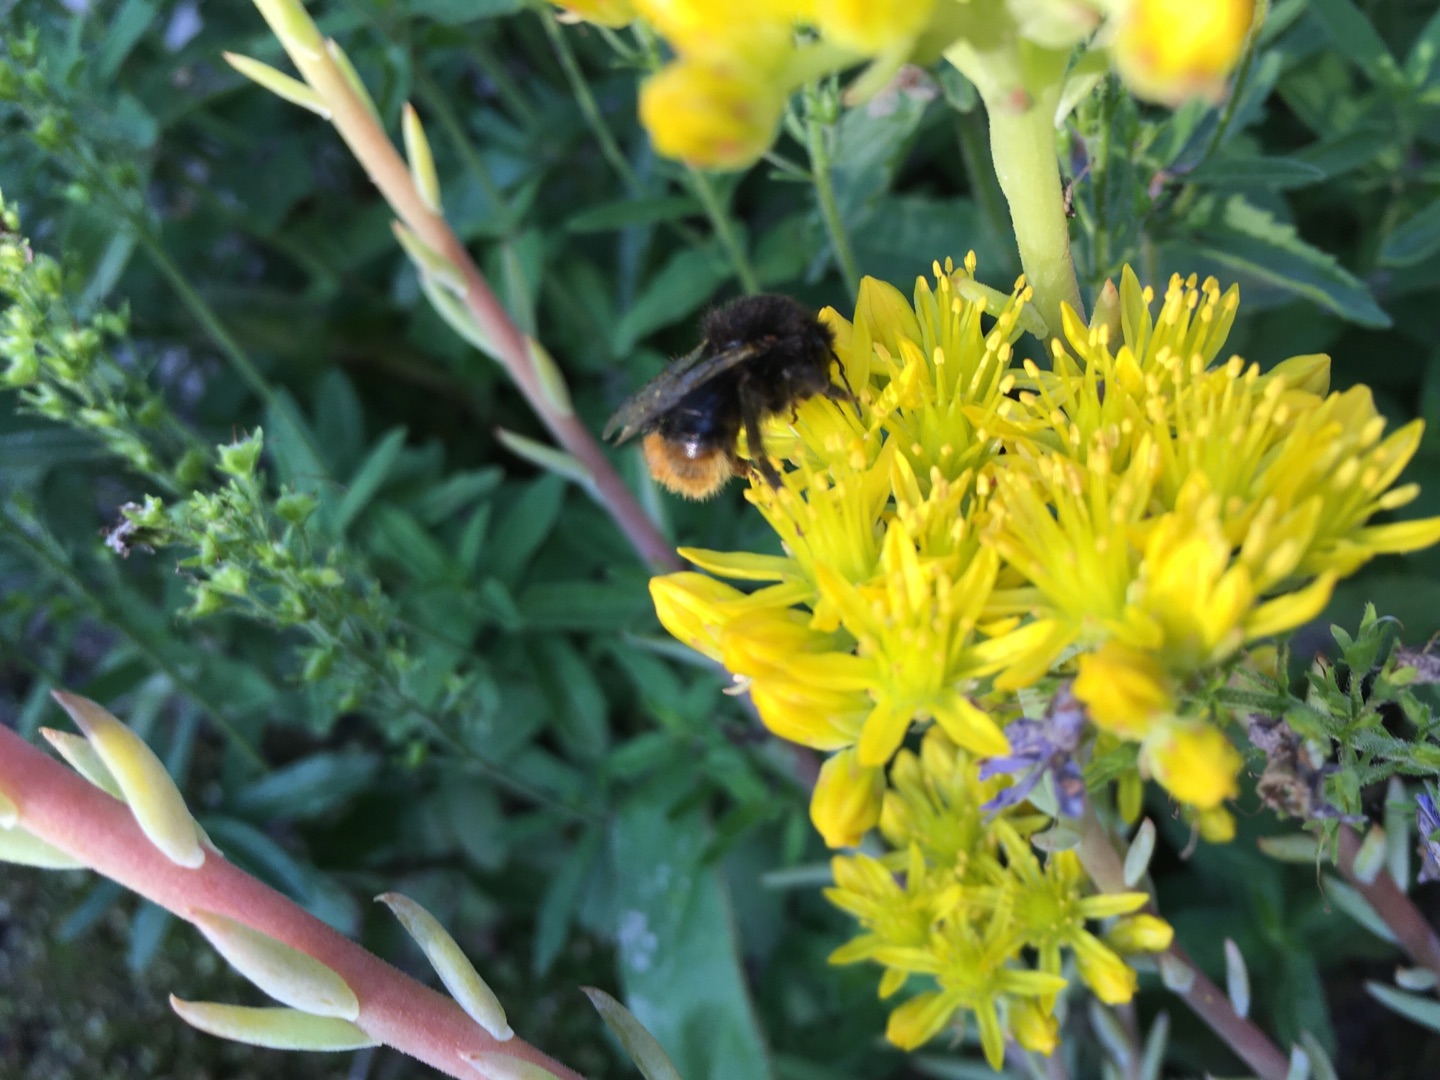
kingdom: Plantae
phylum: Tracheophyta
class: Magnoliopsida
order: Saxifragales
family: Crassulaceae
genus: Petrosedum
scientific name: Petrosedum rupestre
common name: Bjerg-stenurt
